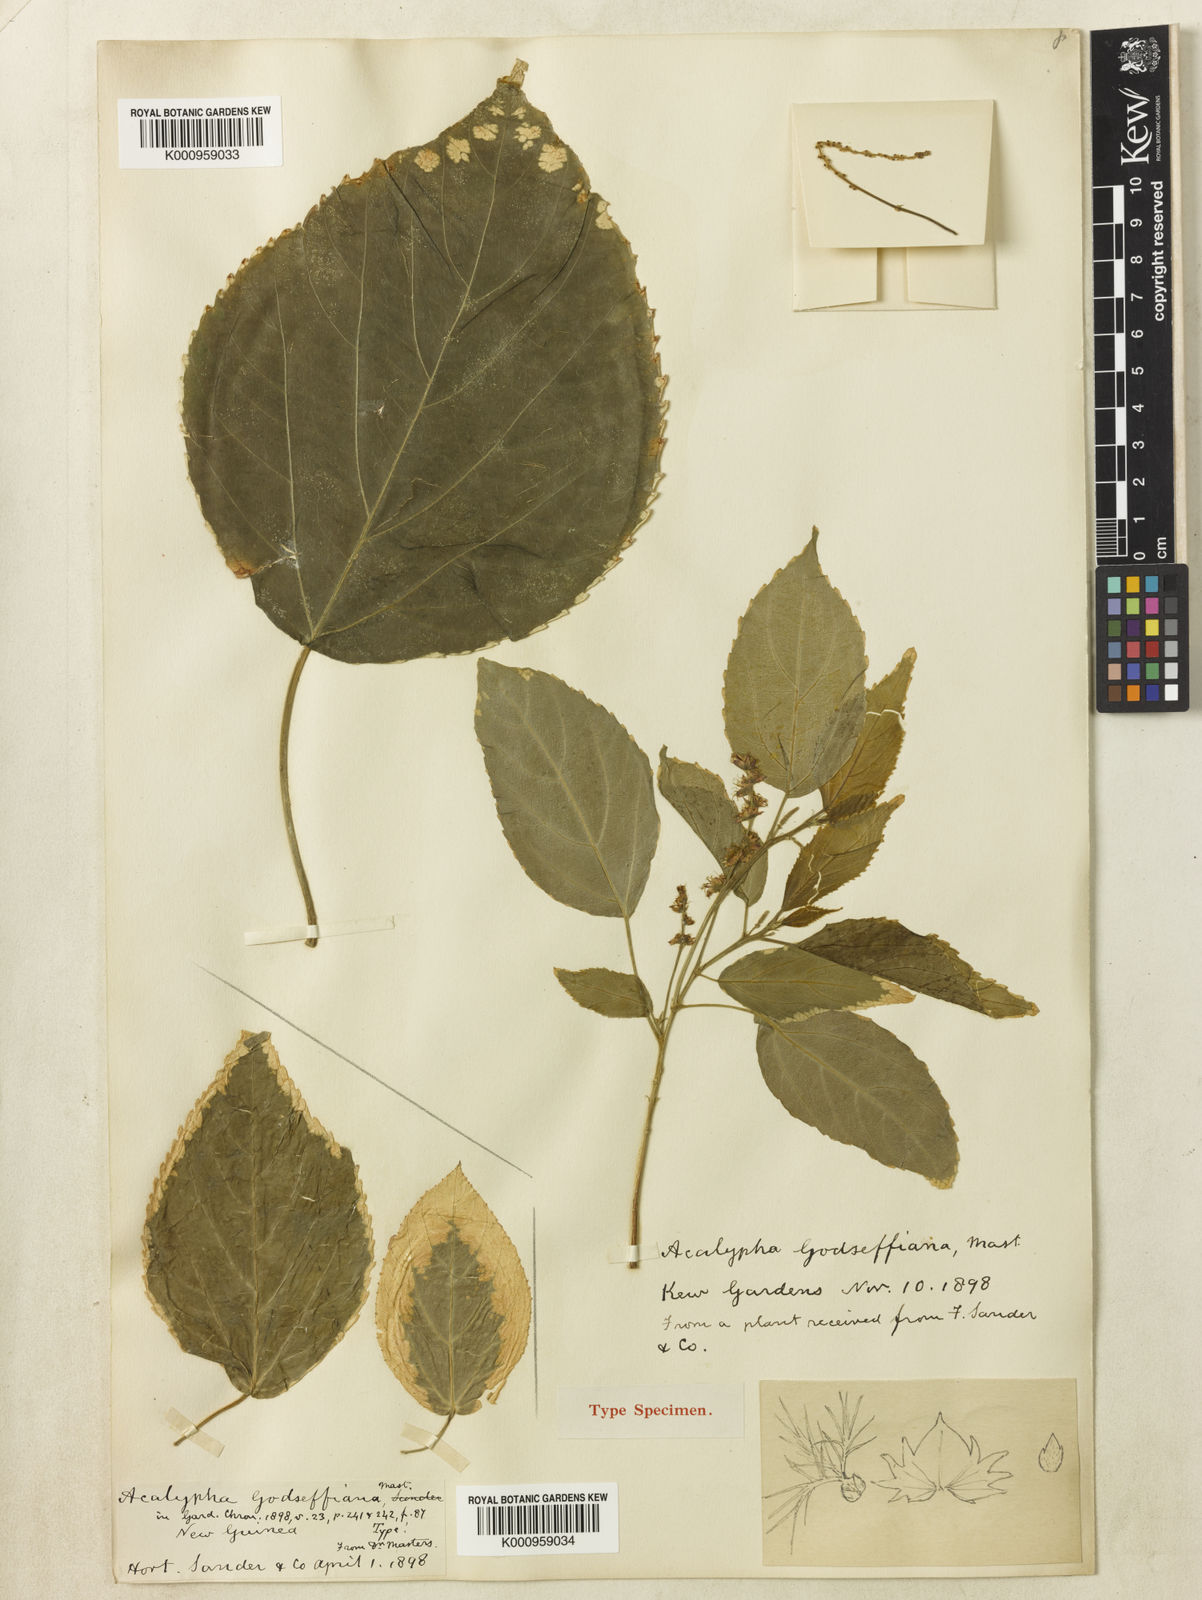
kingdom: Plantae
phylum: Tracheophyta
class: Magnoliopsida
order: Malpighiales
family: Euphorbiaceae
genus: Acalypha
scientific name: Acalypha wilkesiana
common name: Jacob's coat
